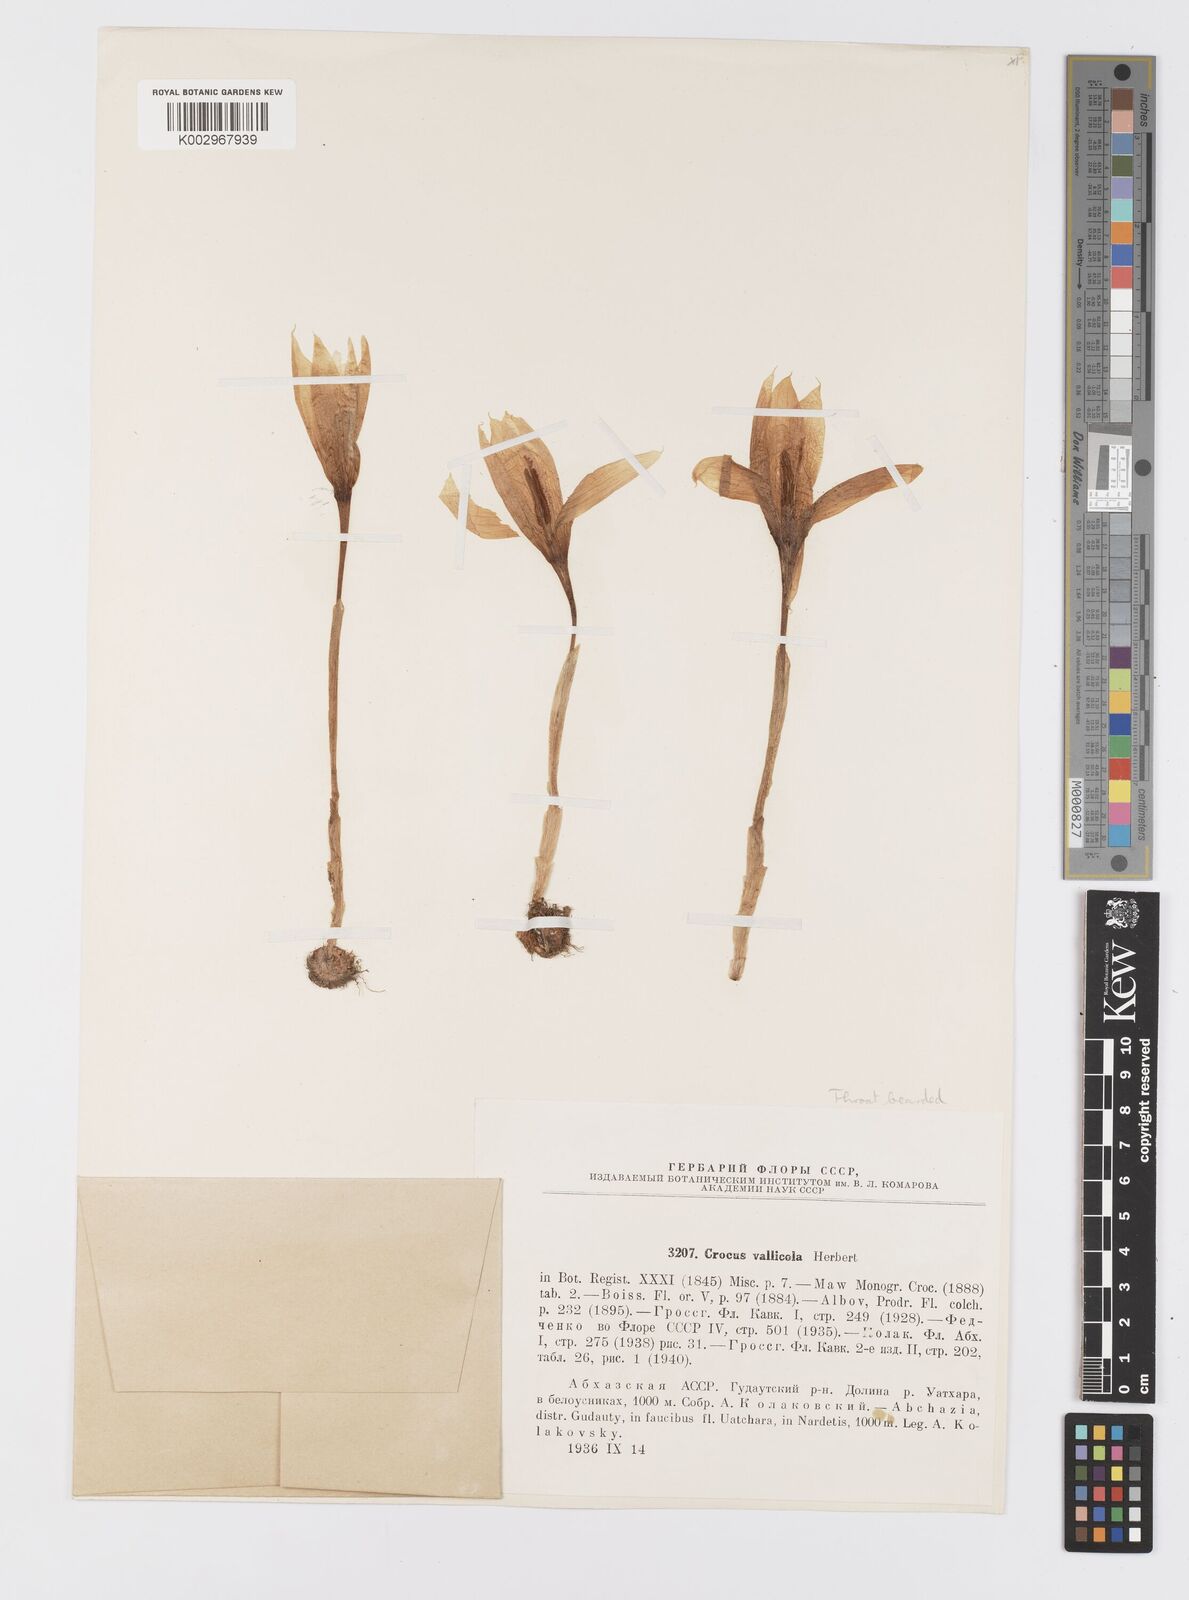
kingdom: Plantae
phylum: Tracheophyta
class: Liliopsida
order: Asparagales
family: Iridaceae
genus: Crocus
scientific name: Crocus vallicola
